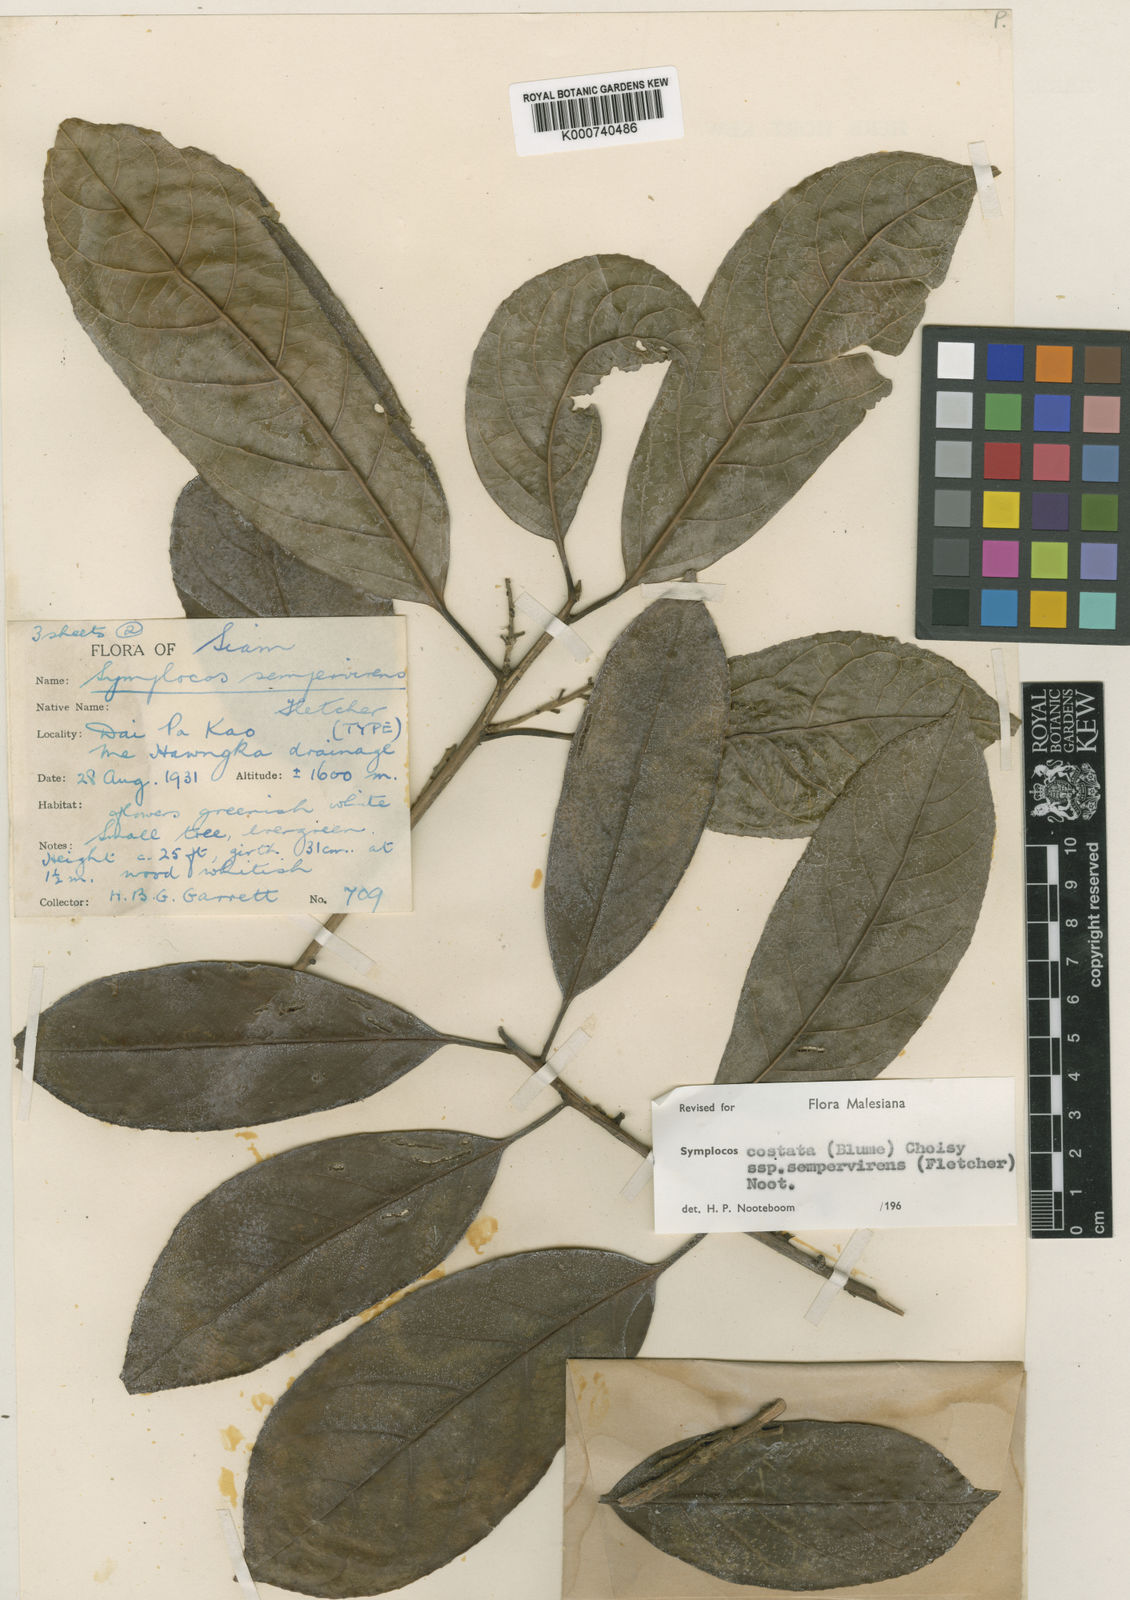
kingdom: Plantae
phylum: Tracheophyta
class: Magnoliopsida
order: Ericales
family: Symplocaceae
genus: Symplocos
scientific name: Symplocos costata
